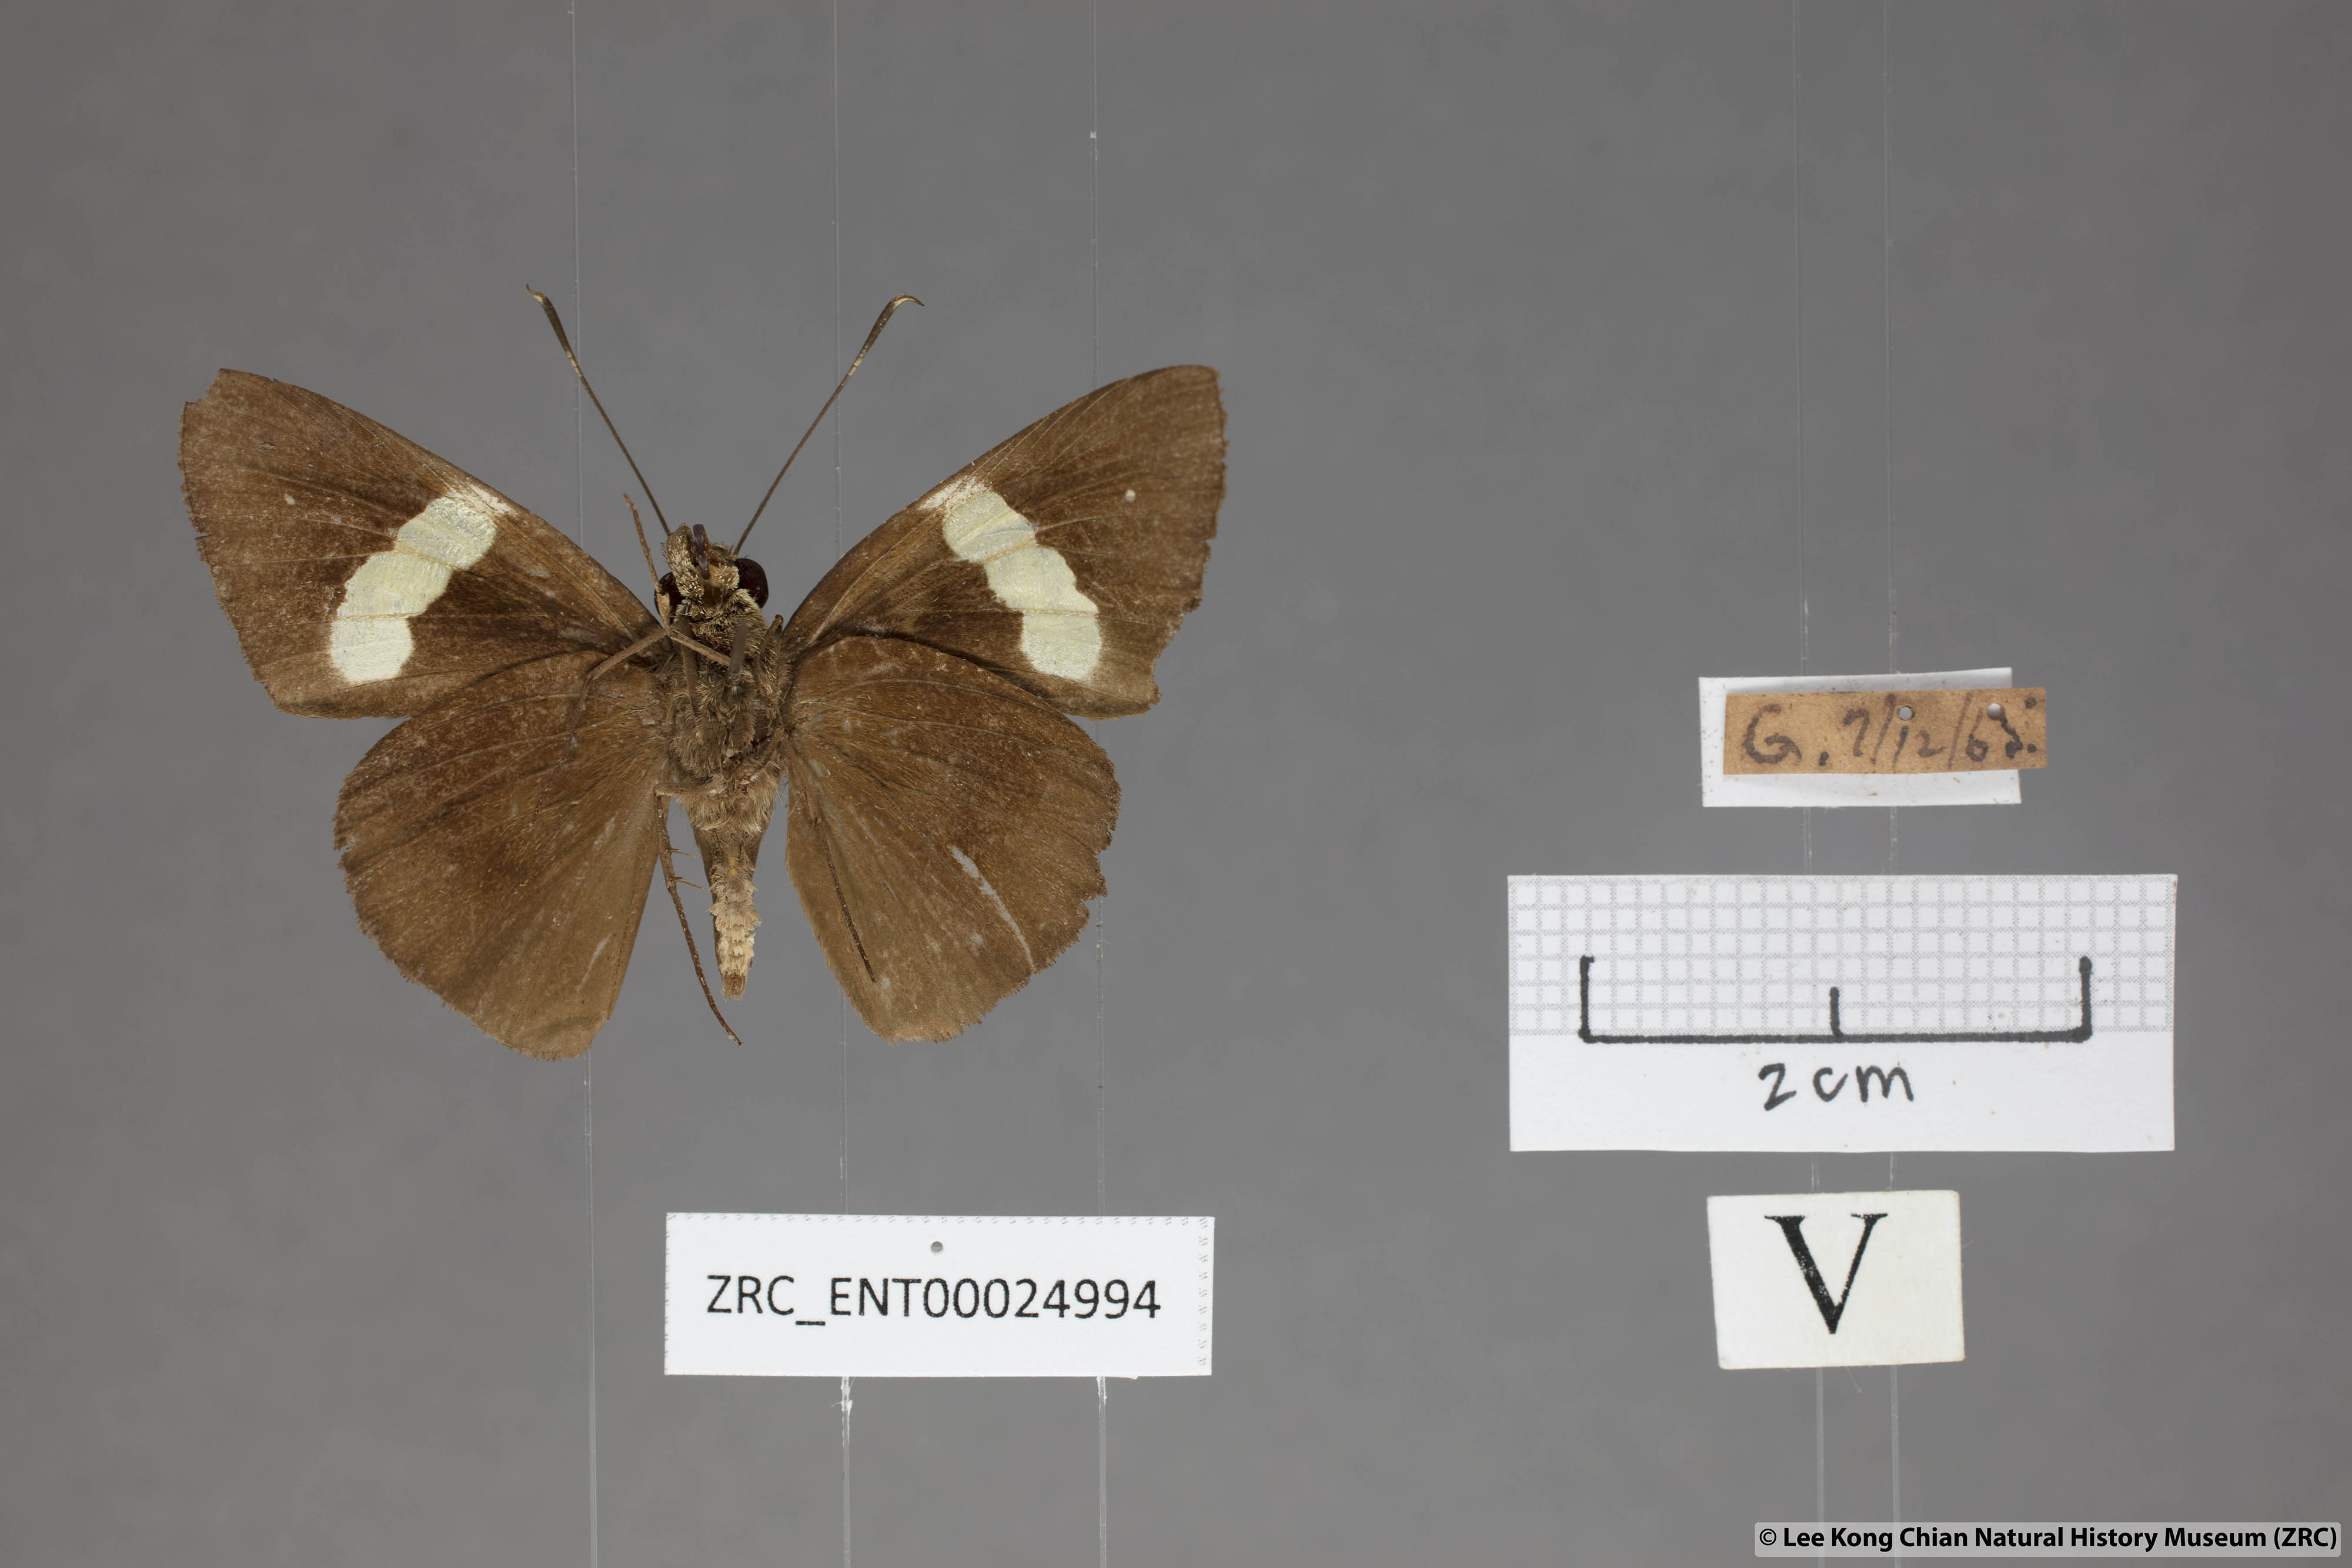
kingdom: Animalia
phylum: Arthropoda
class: Insecta
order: Lepidoptera
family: Hesperiidae
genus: Notocrypta
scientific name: Notocrypta clavata
